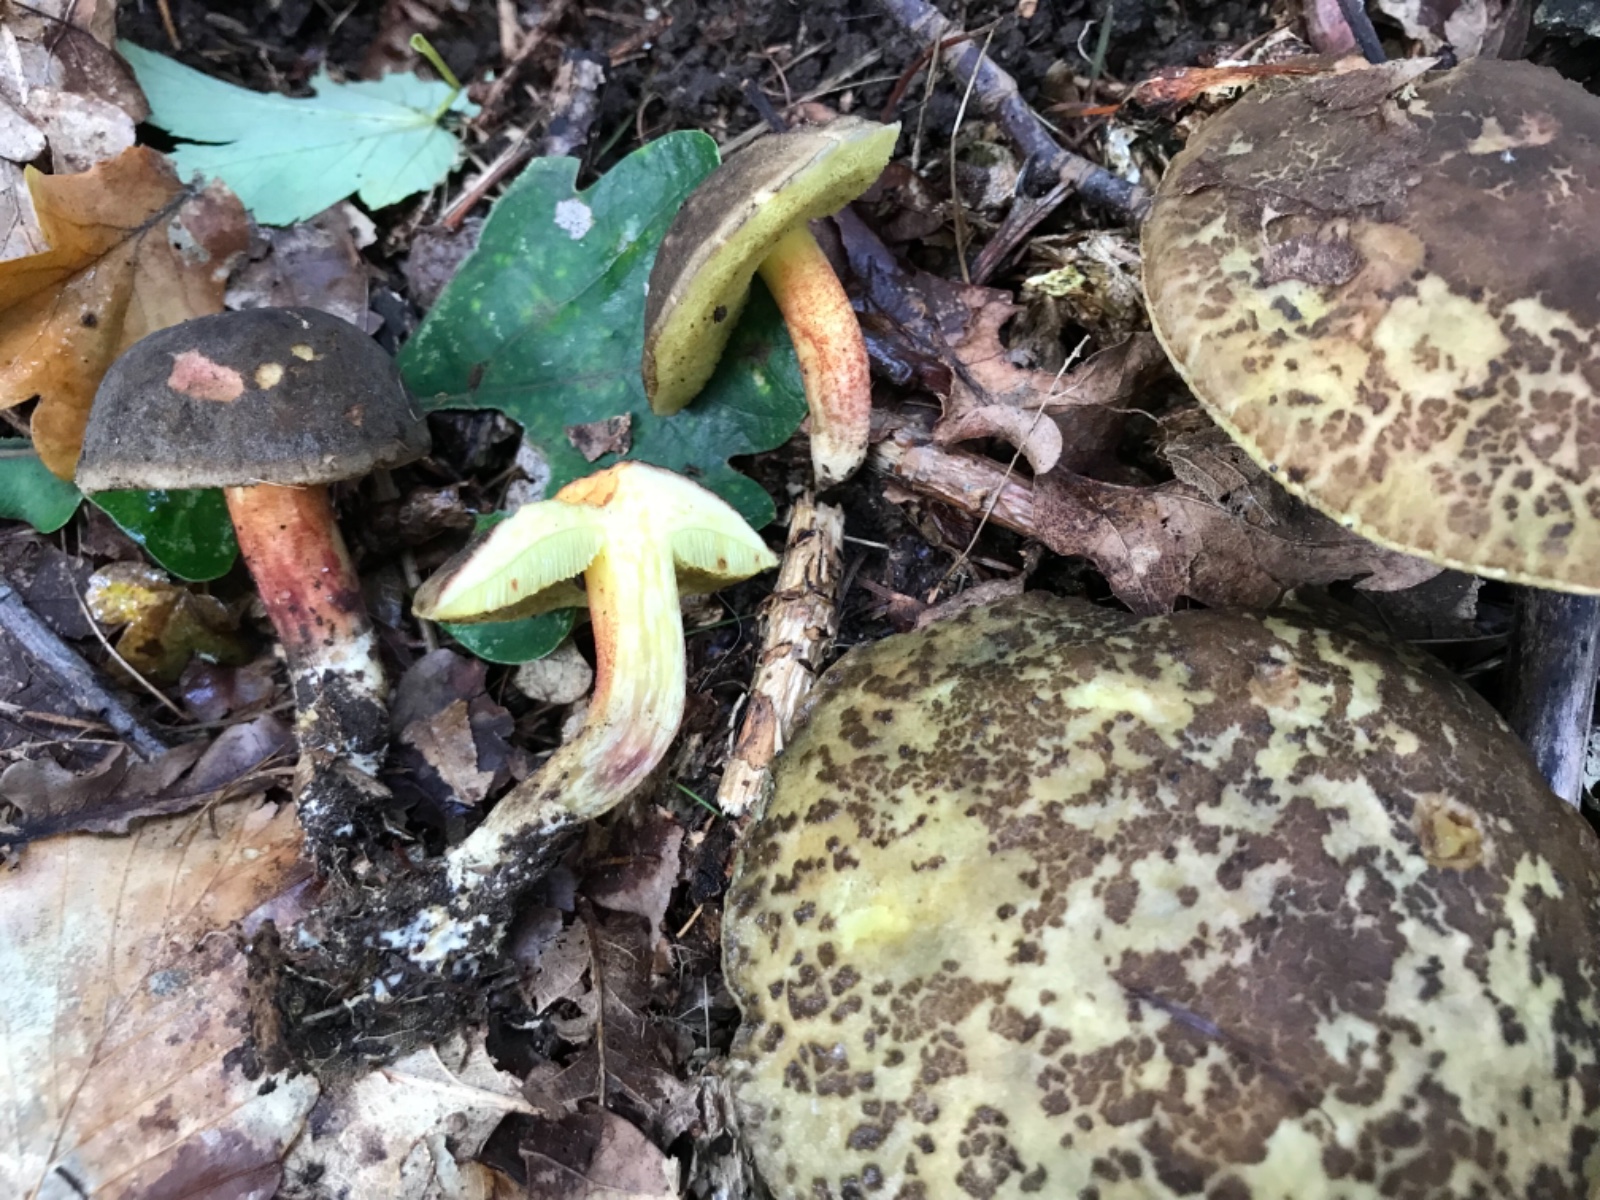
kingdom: Fungi
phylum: Basidiomycota
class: Agaricomycetes
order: Boletales
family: Boletaceae
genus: Xerocomellus
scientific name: Xerocomellus
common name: dværgrørhat
